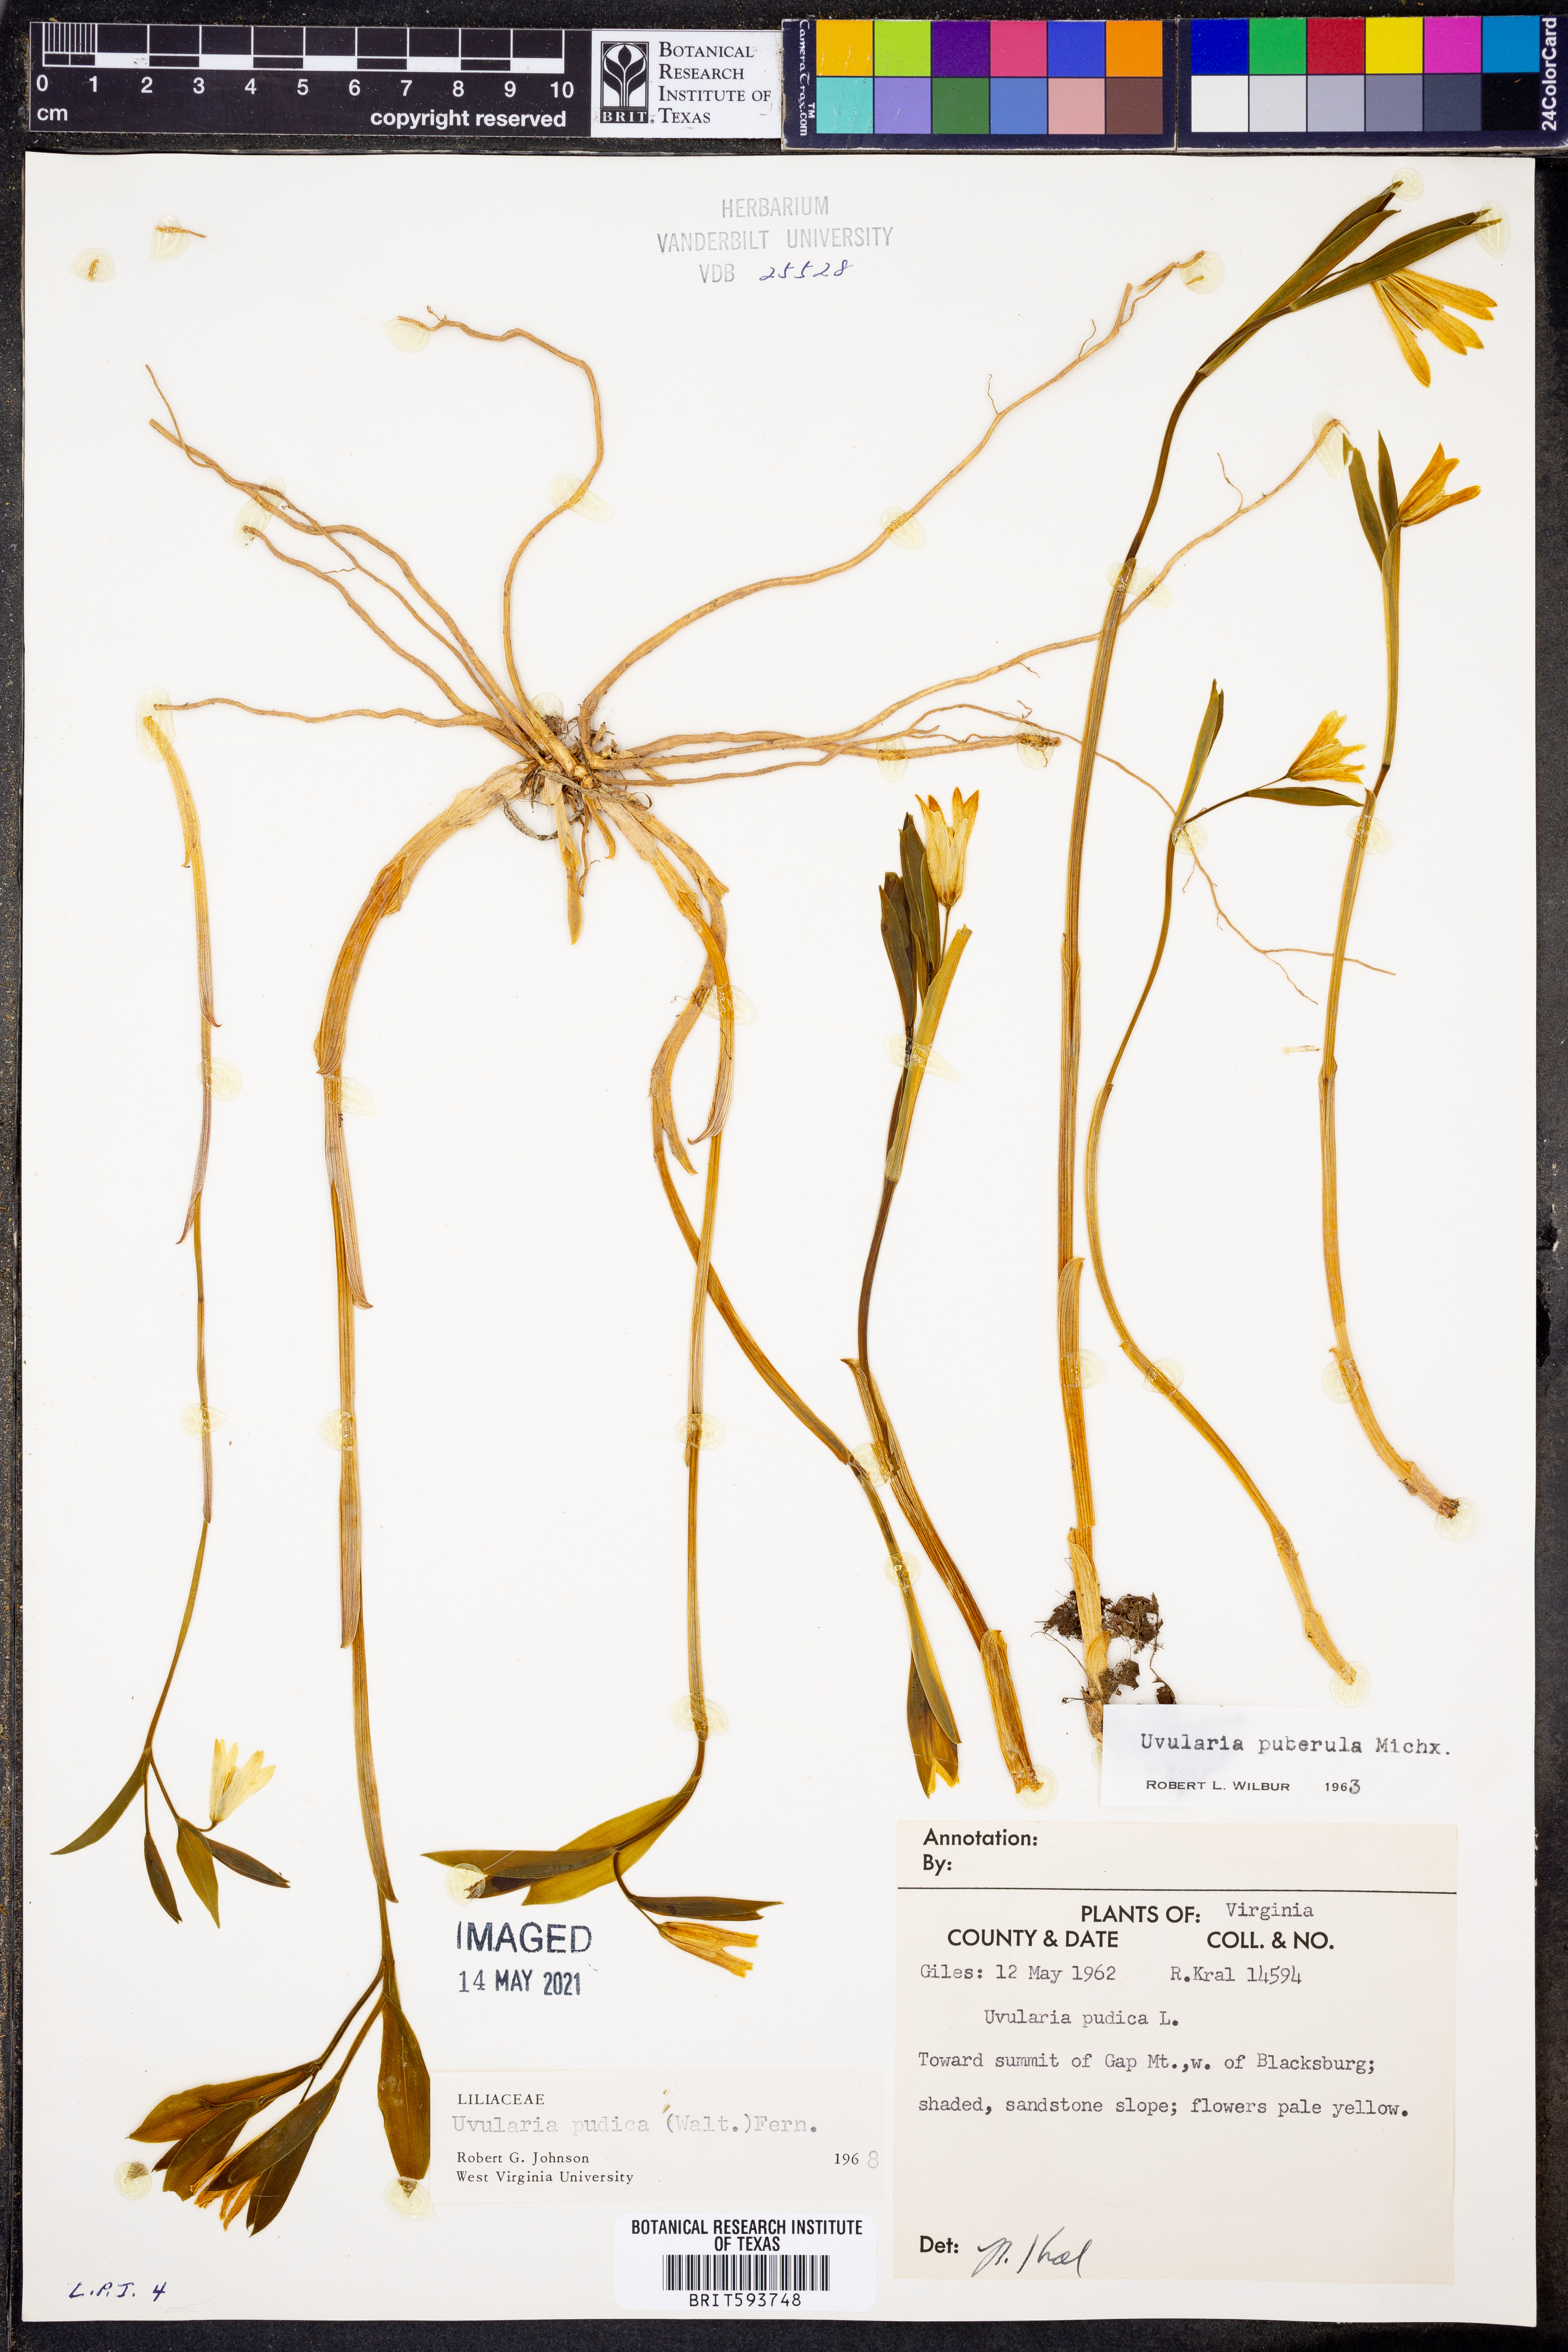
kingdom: Plantae
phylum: Tracheophyta
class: Liliopsida
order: Liliales
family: Colchicaceae
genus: Uvularia
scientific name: Uvularia perfoliata
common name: Perfoliate bellwort
